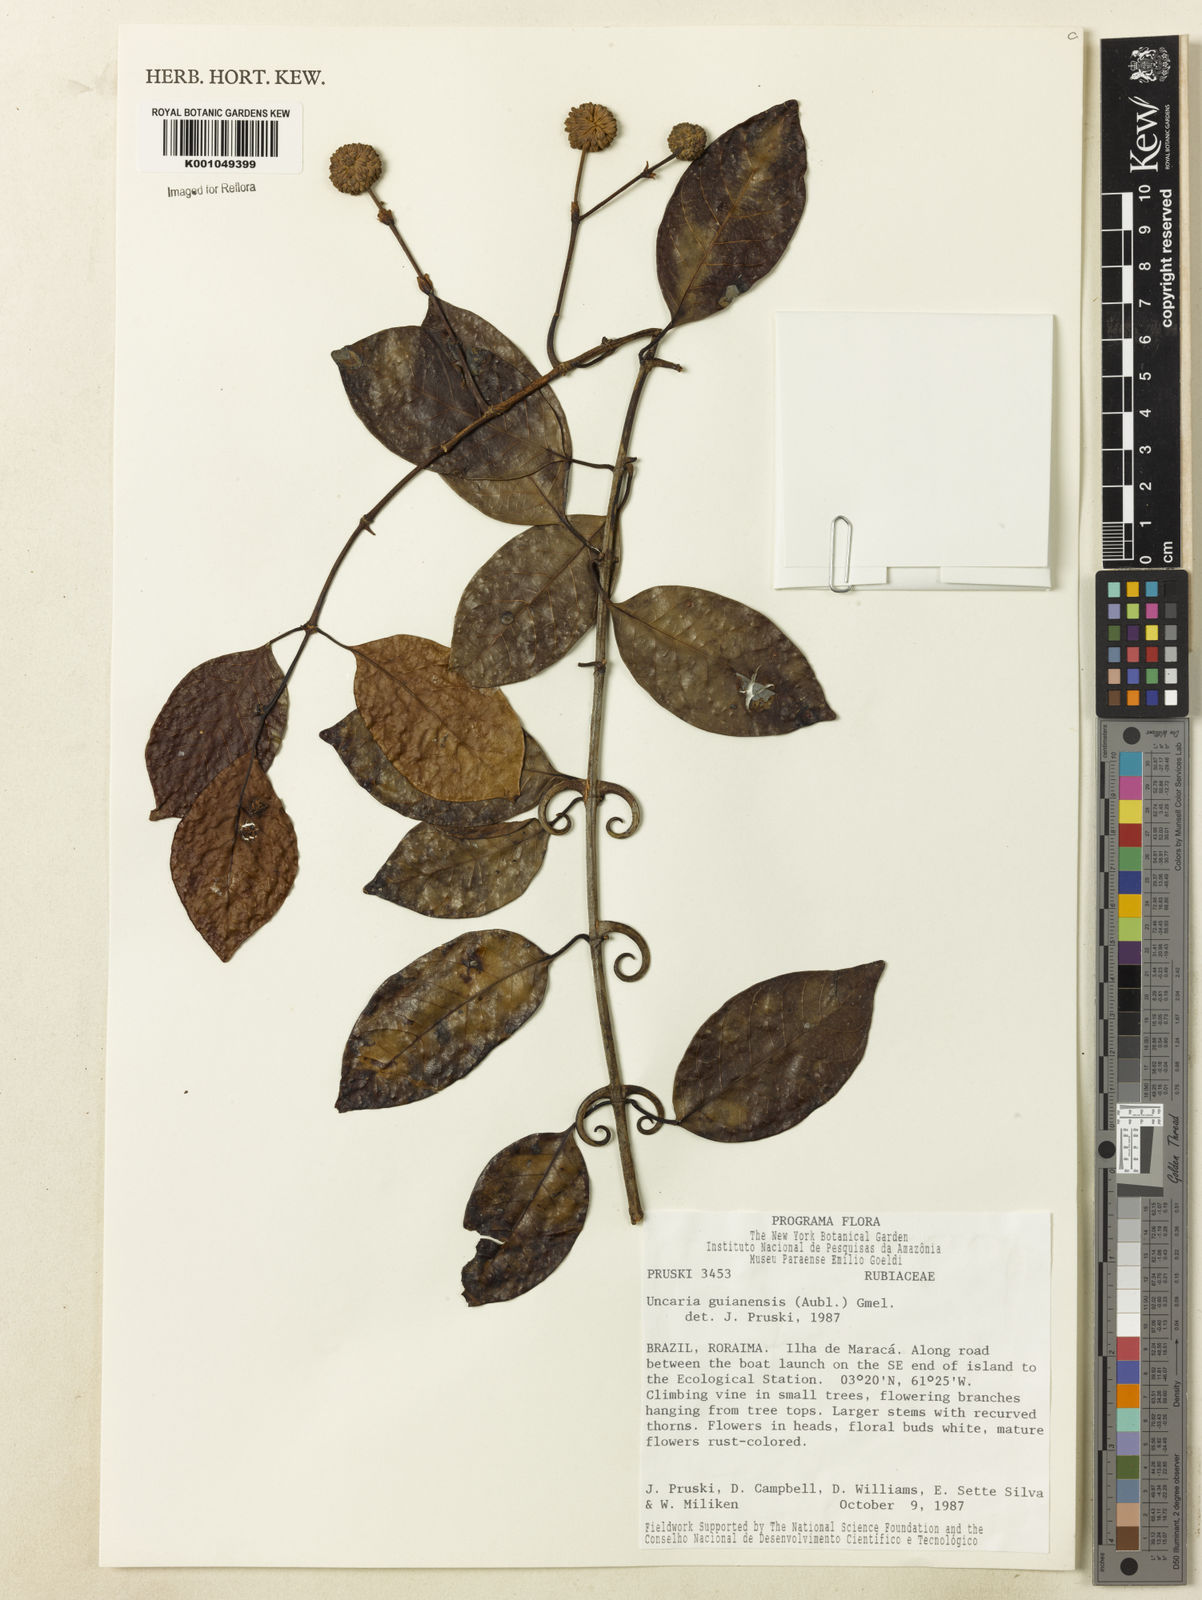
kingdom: Plantae
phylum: Tracheophyta
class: Magnoliopsida
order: Gentianales
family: Rubiaceae
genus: Uncaria
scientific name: Uncaria guianensis
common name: Cat's-claw
